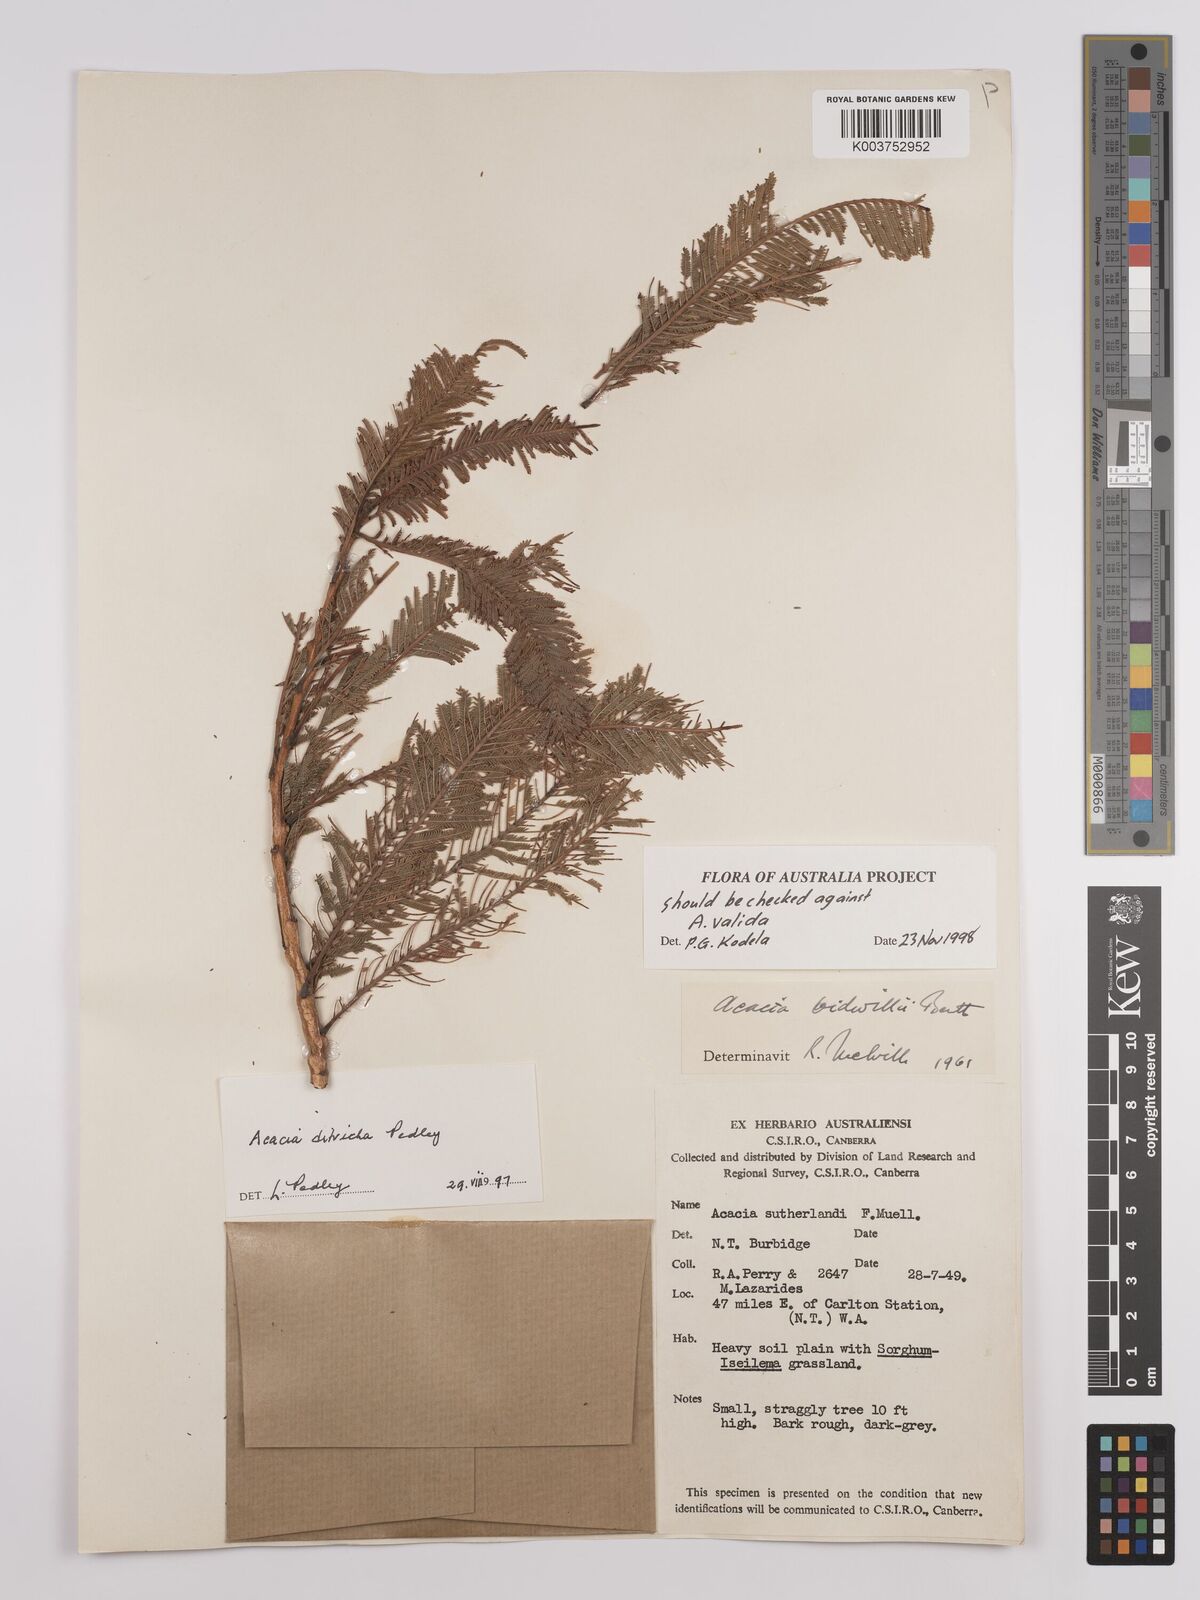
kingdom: Plantae
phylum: Tracheophyta
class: Magnoliopsida
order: Fabales
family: Fabaceae
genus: Vachellia
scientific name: Vachellia ditricha
